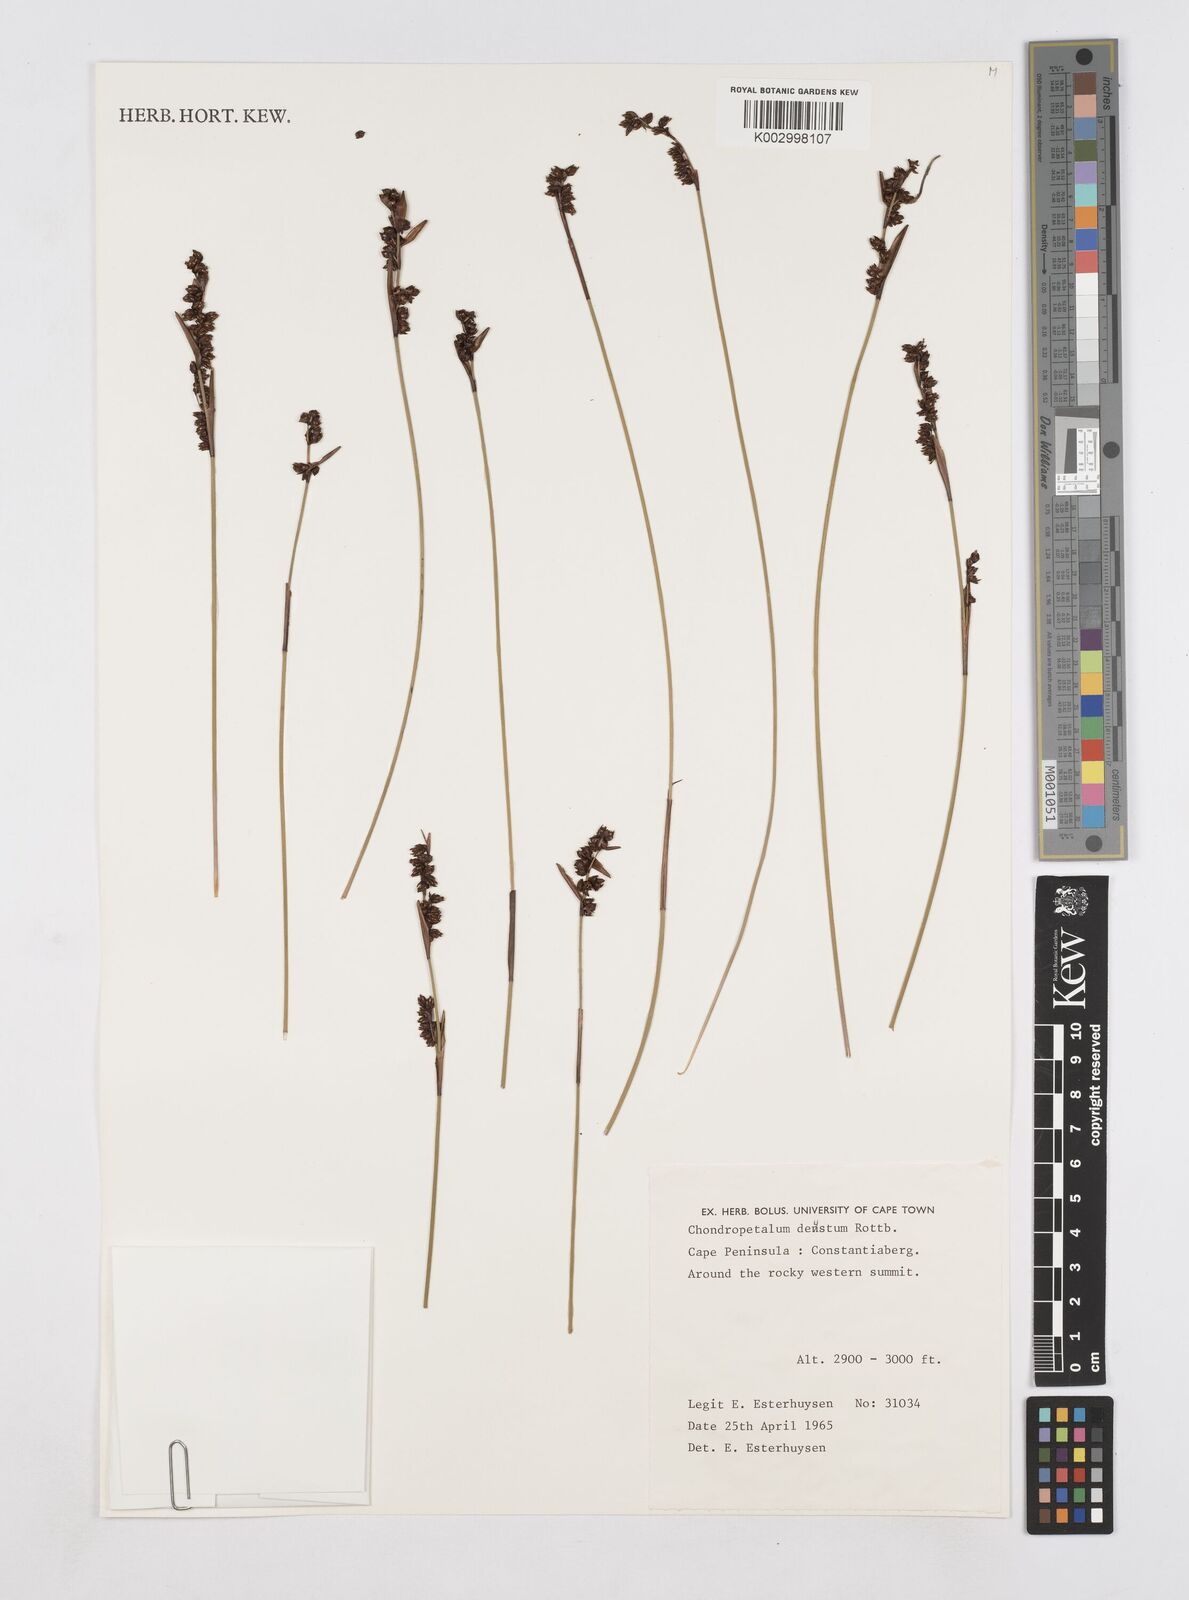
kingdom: Plantae
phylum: Tracheophyta
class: Liliopsida
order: Poales
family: Restionaceae
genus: Elegia
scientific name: Elegia deusta
